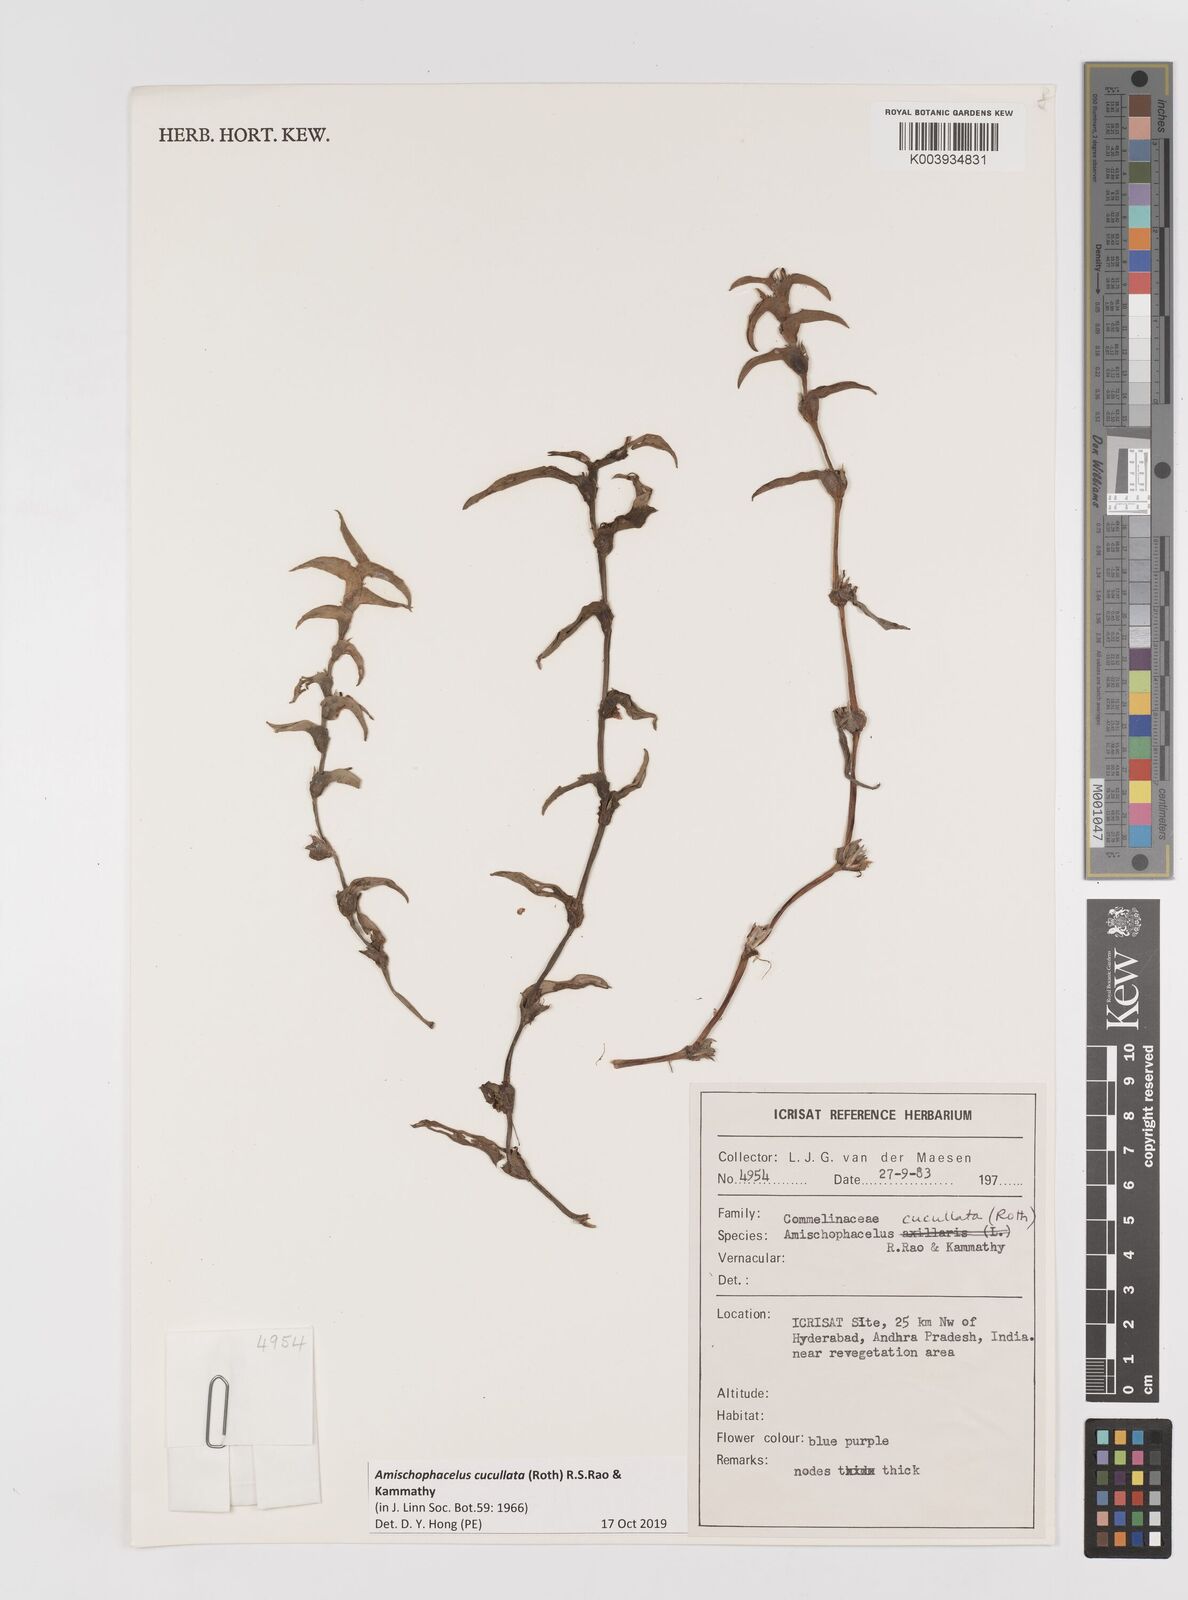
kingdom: Plantae
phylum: Tracheophyta
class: Liliopsida
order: Commelinales
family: Commelinaceae
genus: Cyanotis
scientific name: Cyanotis cucullata
